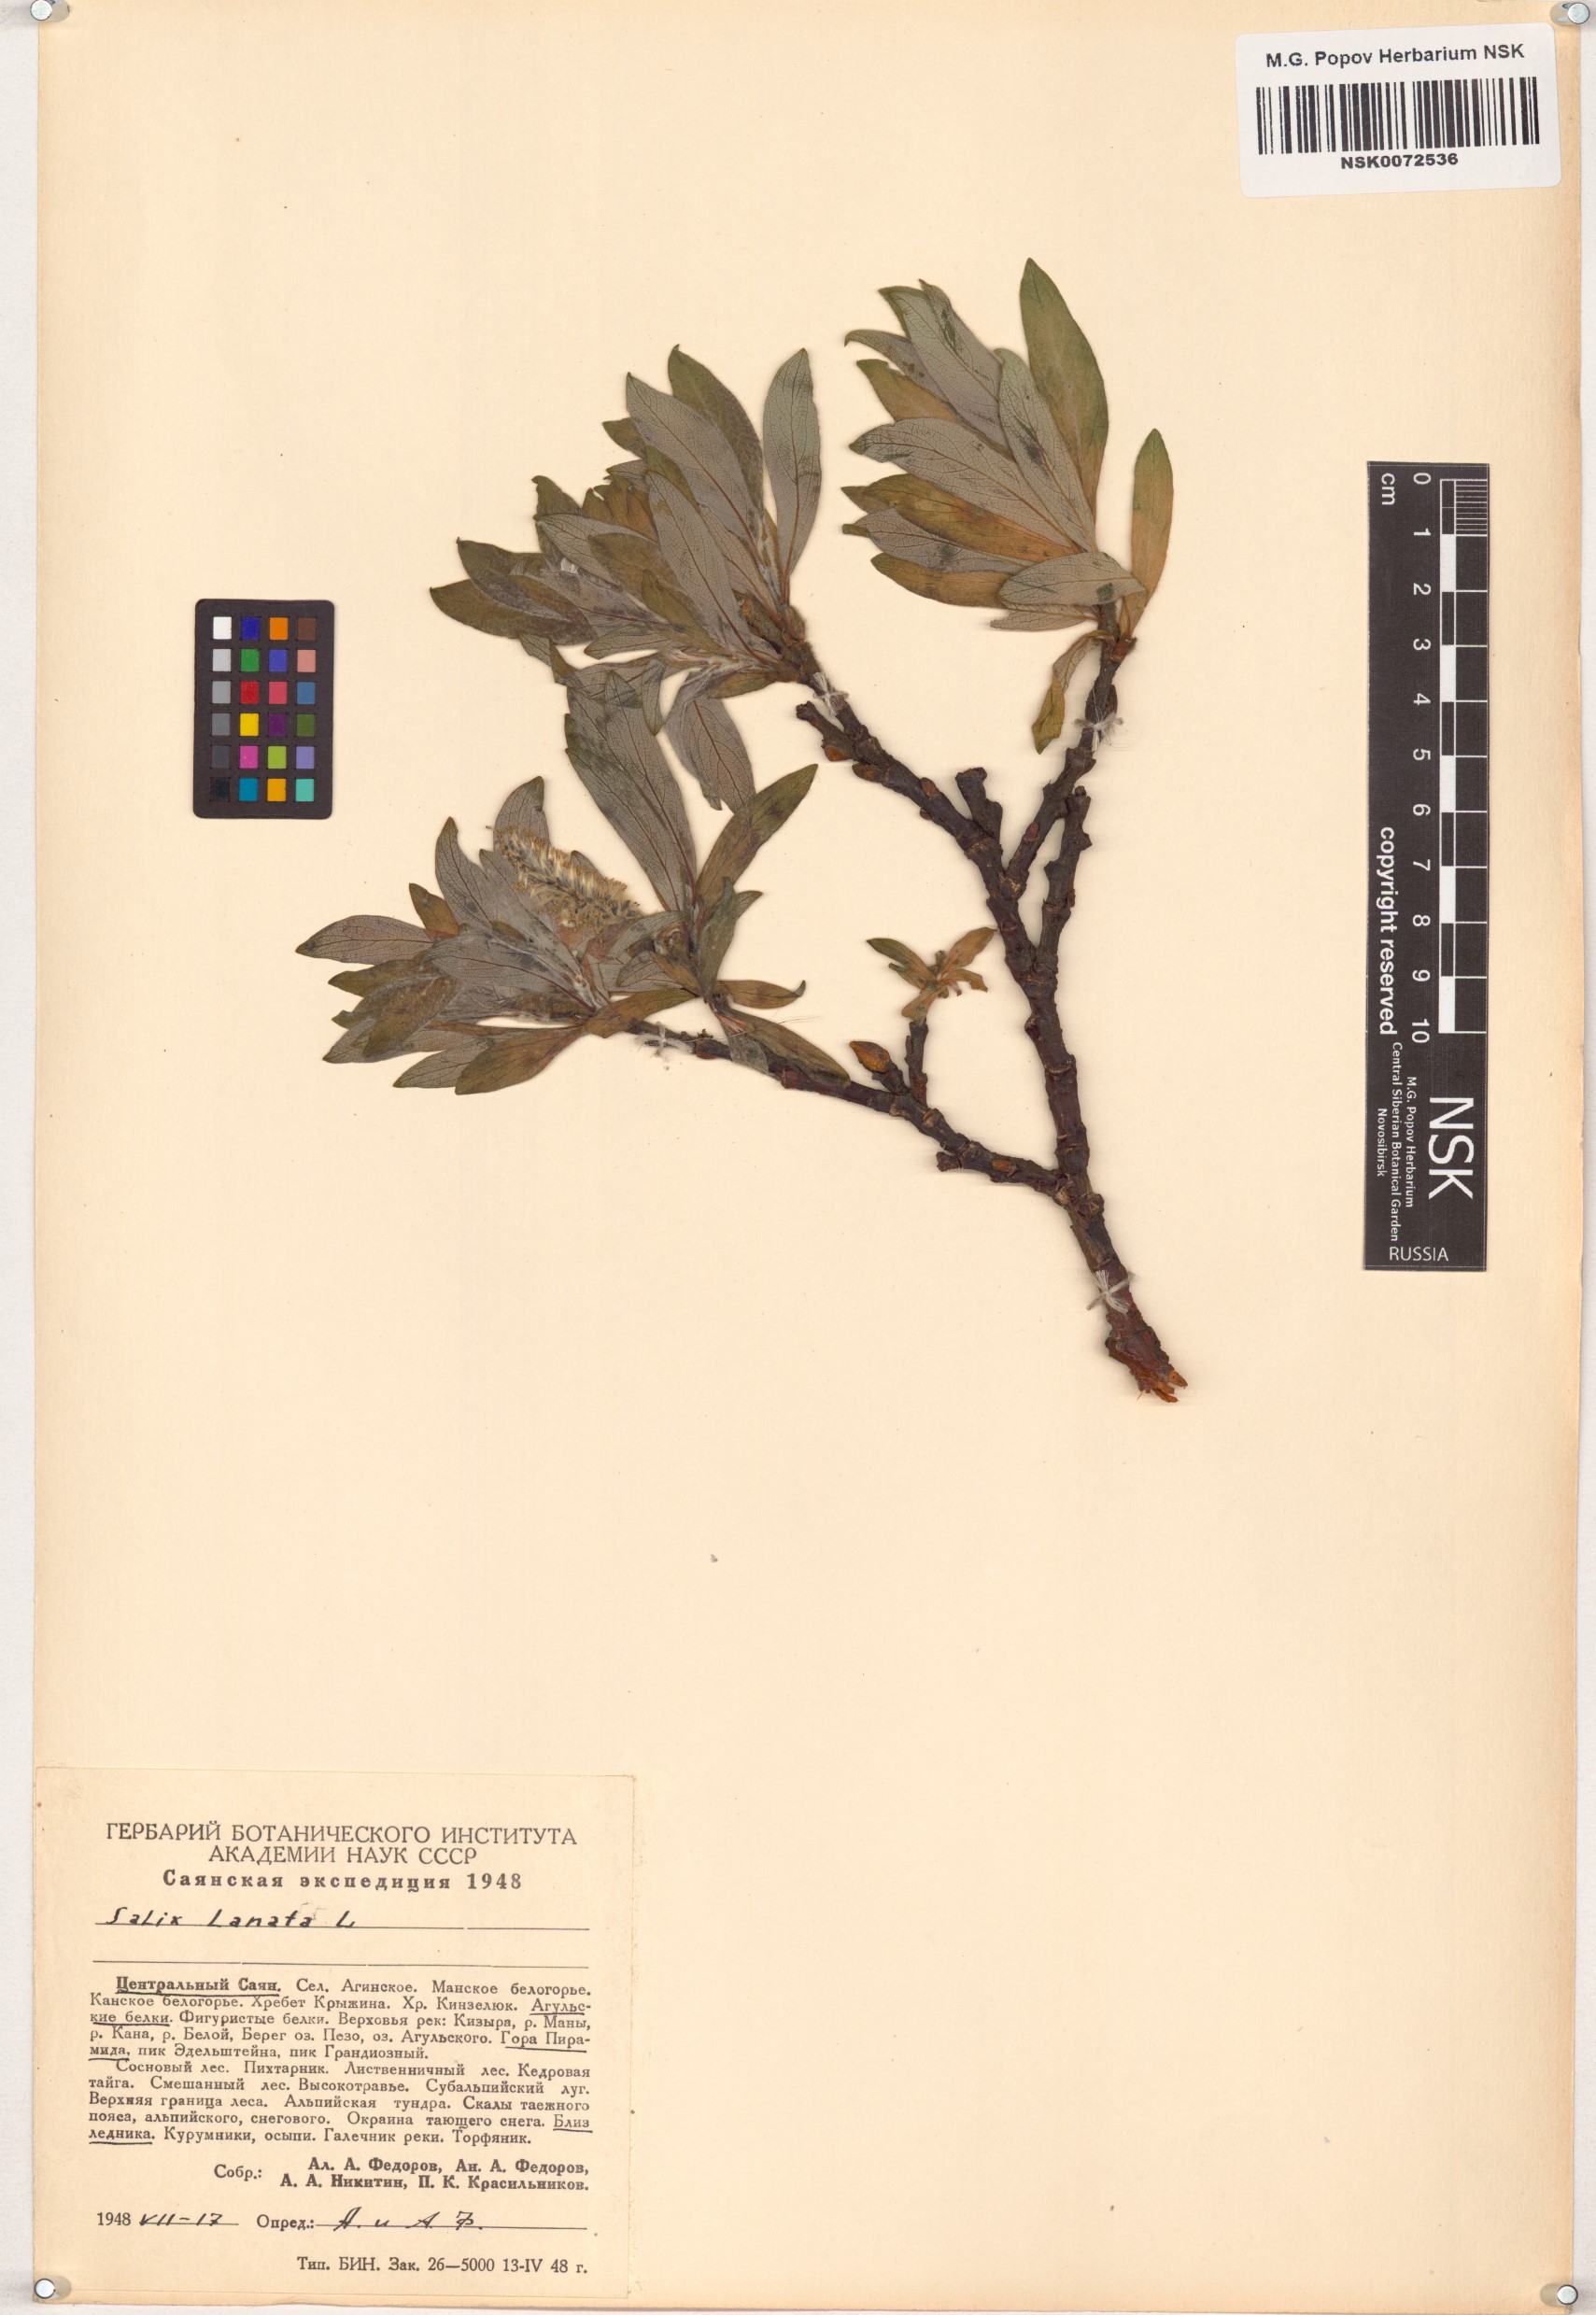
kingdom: Plantae
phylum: Tracheophyta
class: Magnoliopsida
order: Malpighiales
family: Salicaceae
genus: Salix
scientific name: Salix lanata
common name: Woolly willow
